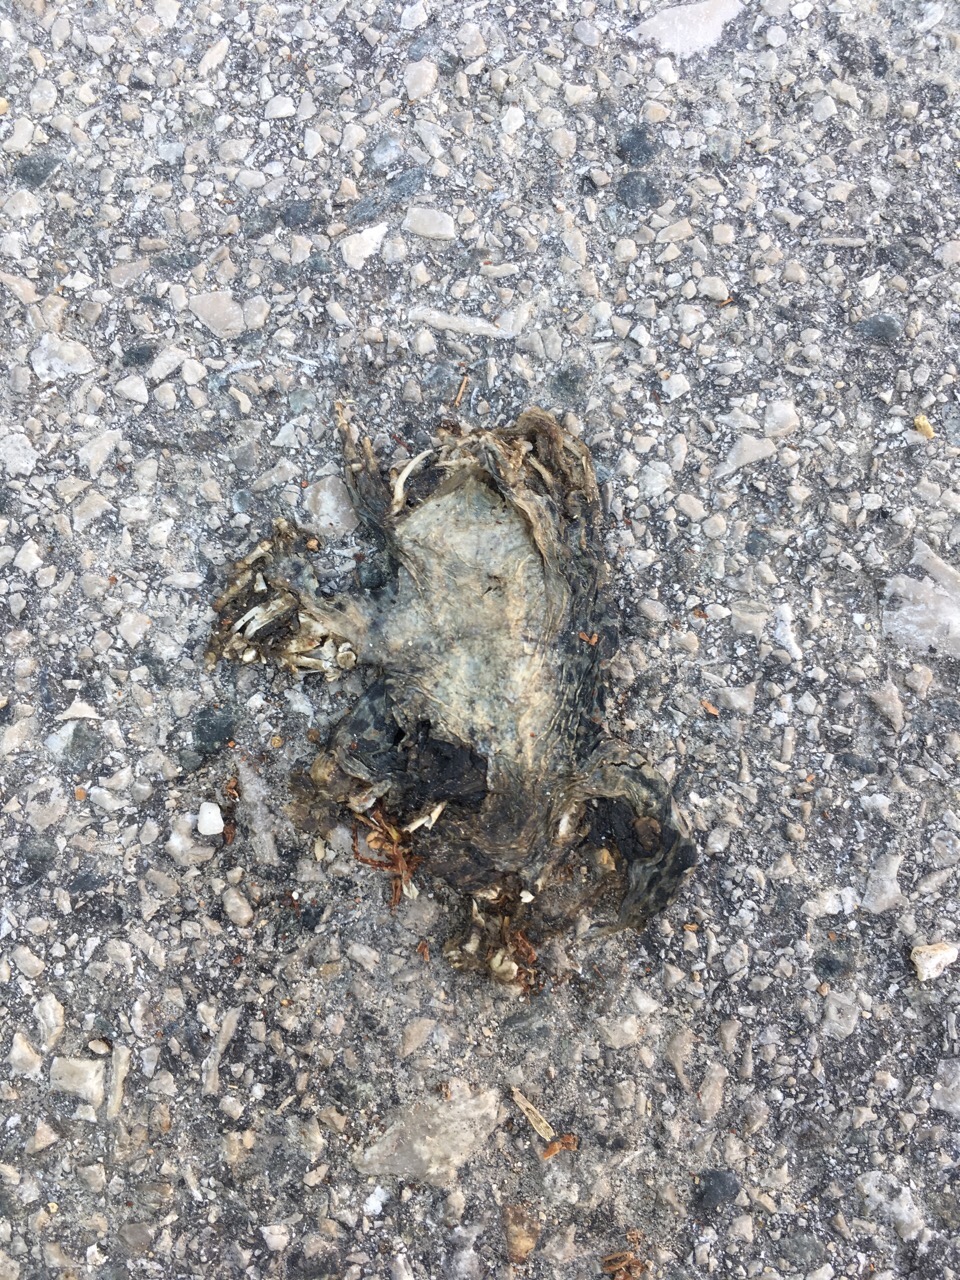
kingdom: Animalia
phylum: Chordata
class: Amphibia
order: Anura
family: Bufonidae
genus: Bufotes
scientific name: Bufotes viridis
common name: European green toad
